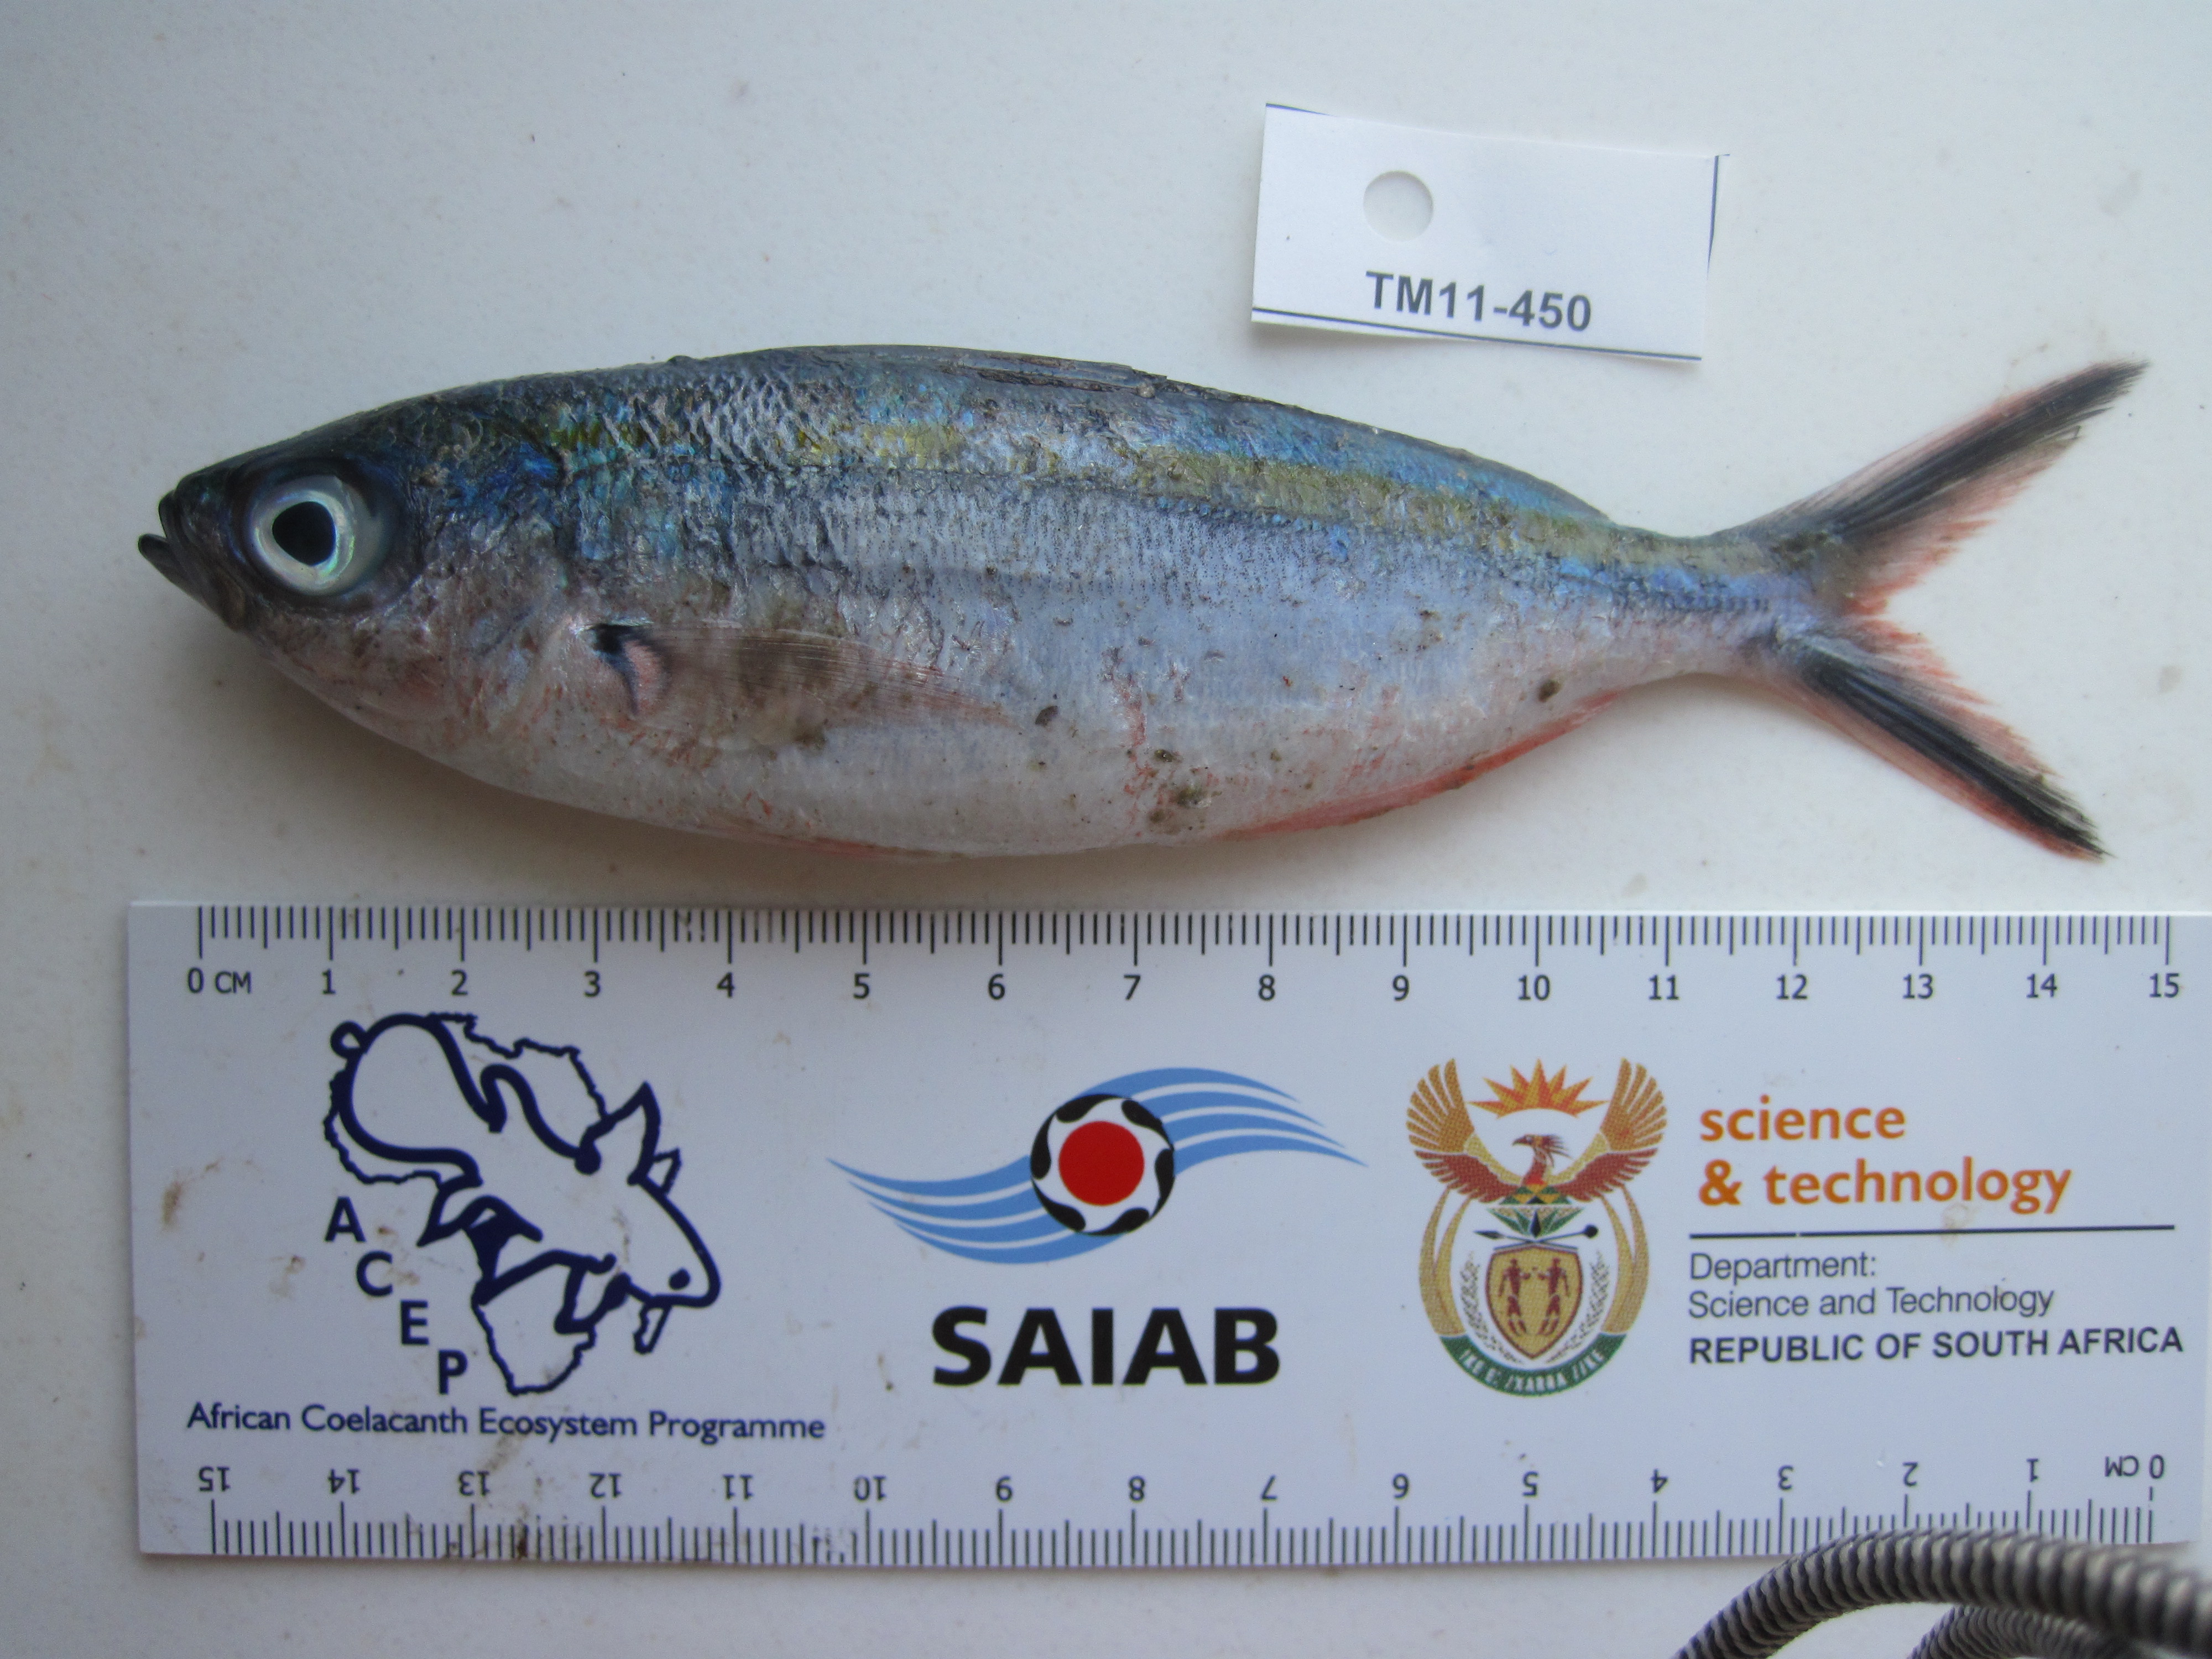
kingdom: Animalia
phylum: Chordata
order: Perciformes
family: Caesionidae
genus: Caesio
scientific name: Caesio caerulaurea
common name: Blue and gold fusilier
